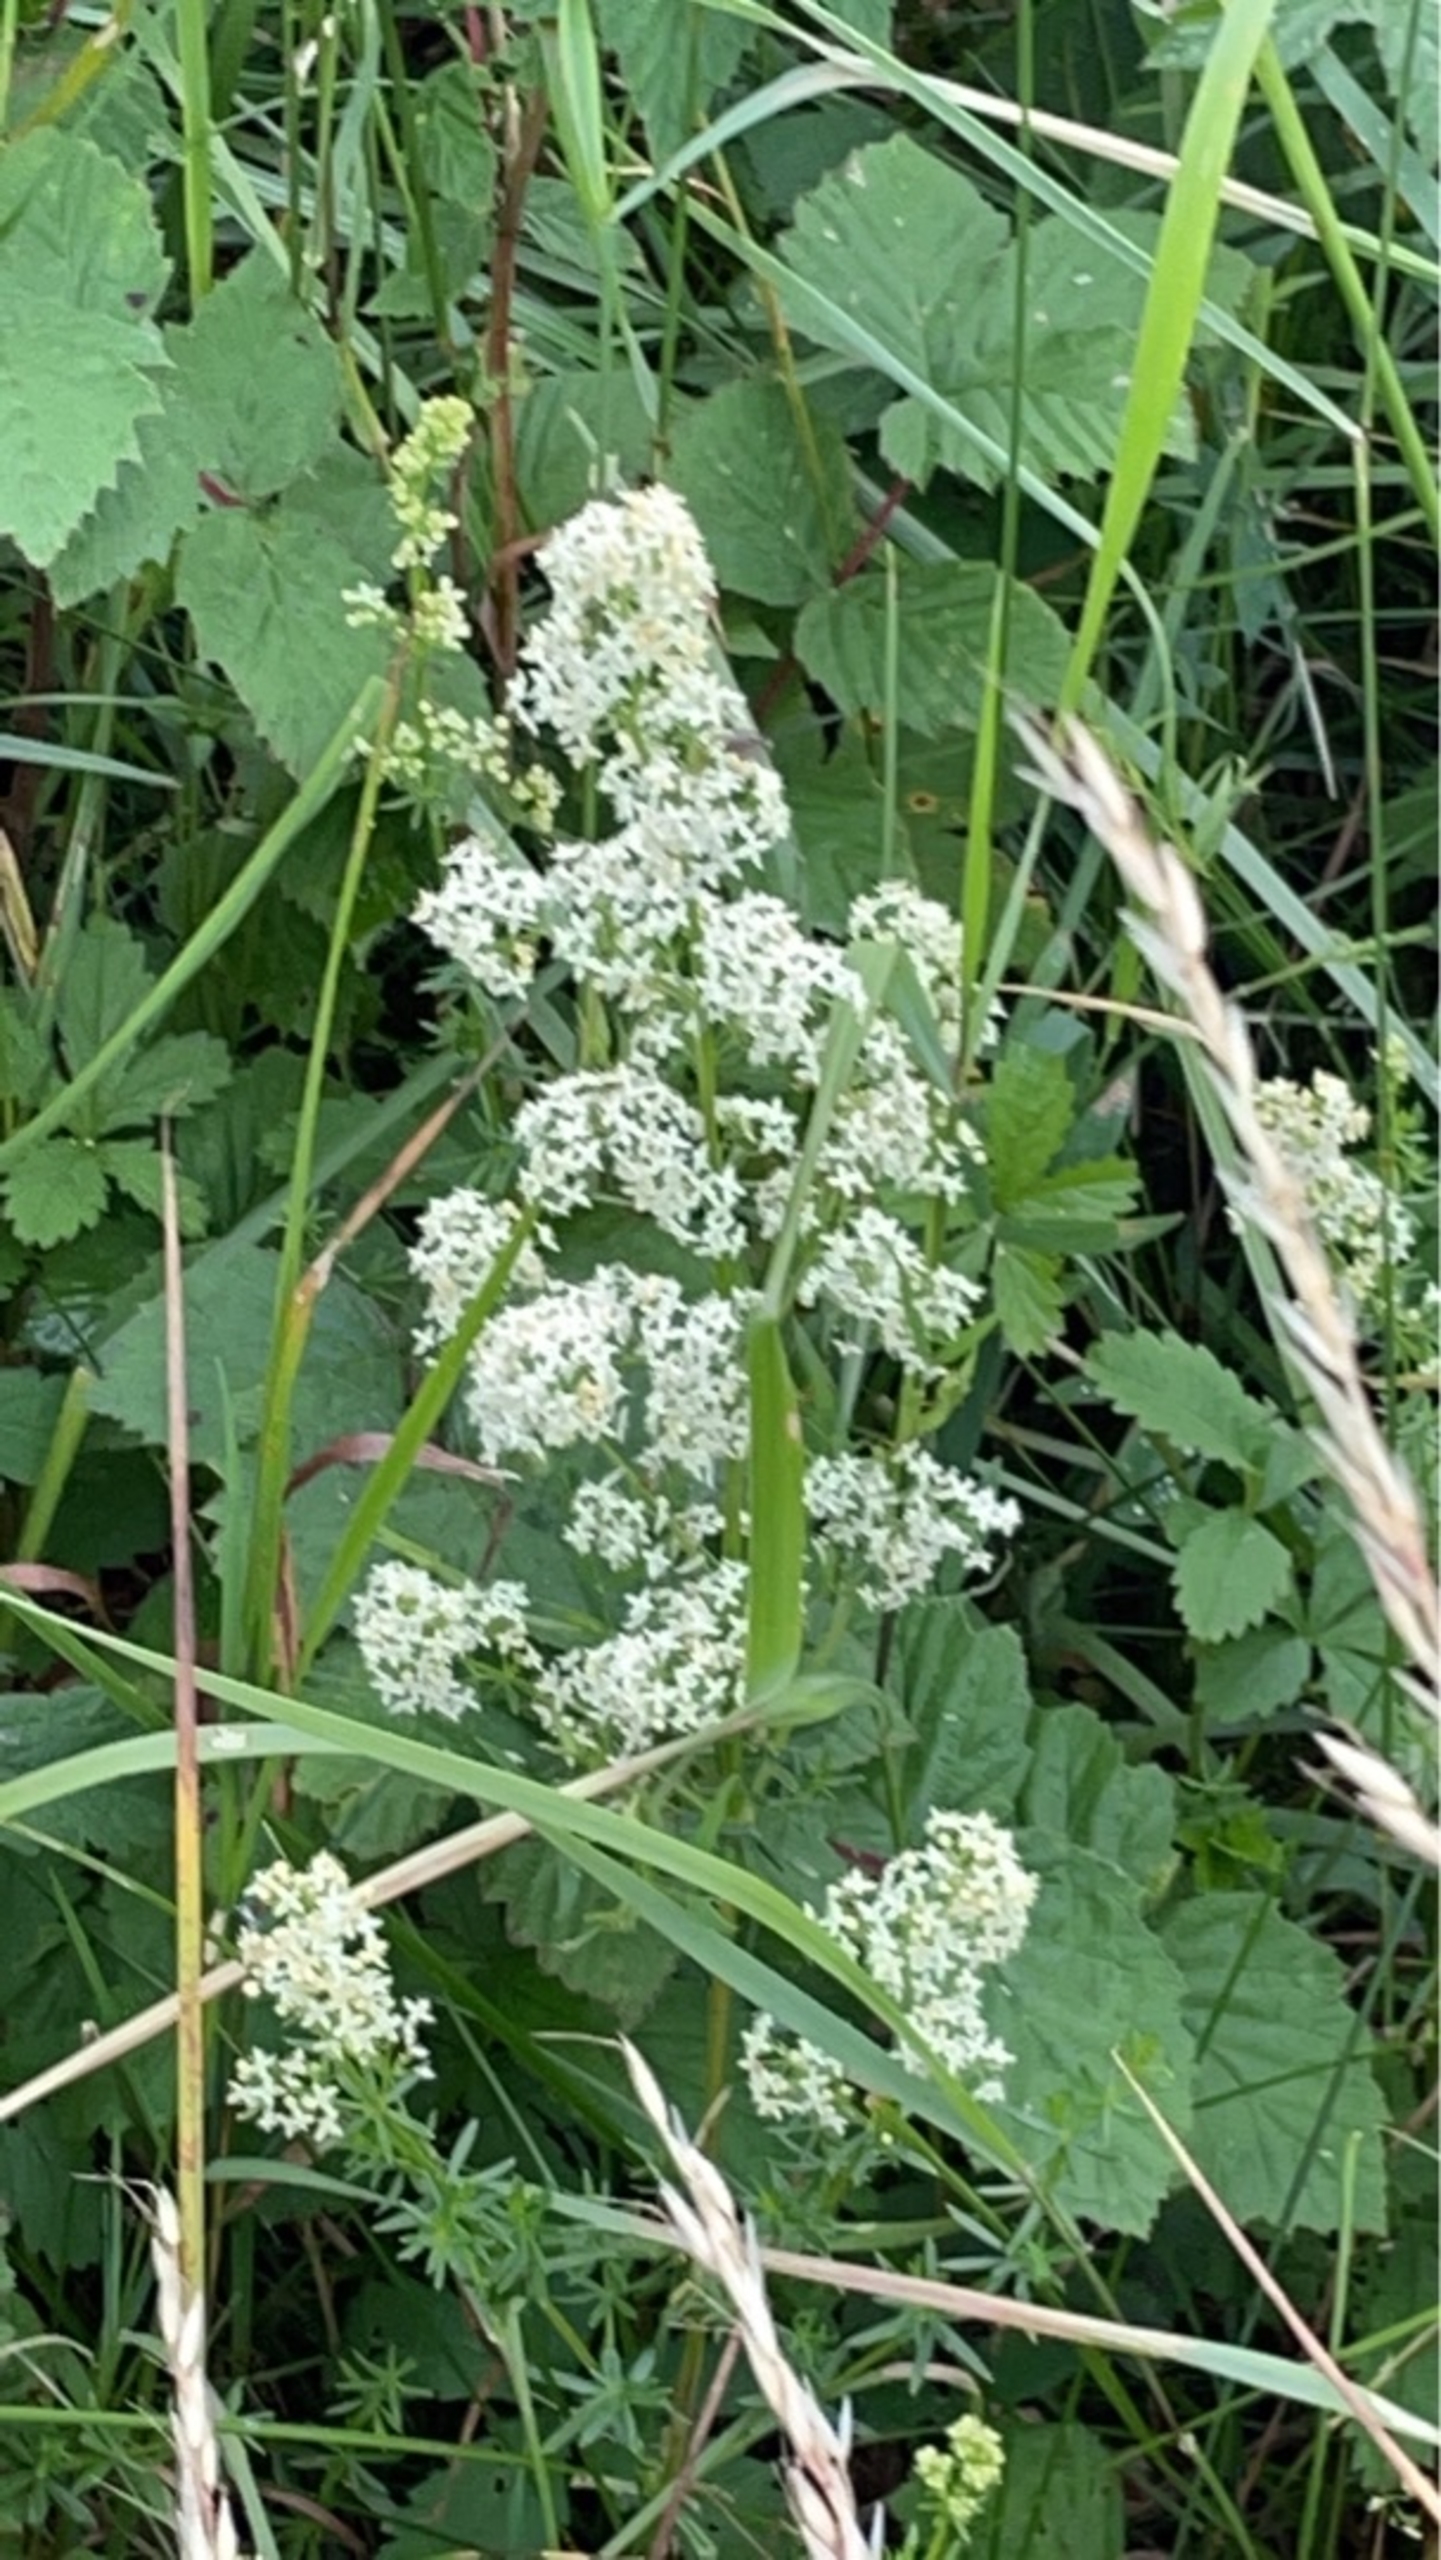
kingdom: Plantae
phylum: Tracheophyta
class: Magnoliopsida
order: Gentianales
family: Rubiaceae
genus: Galium
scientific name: Galium mollugo
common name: Hvid snerre
